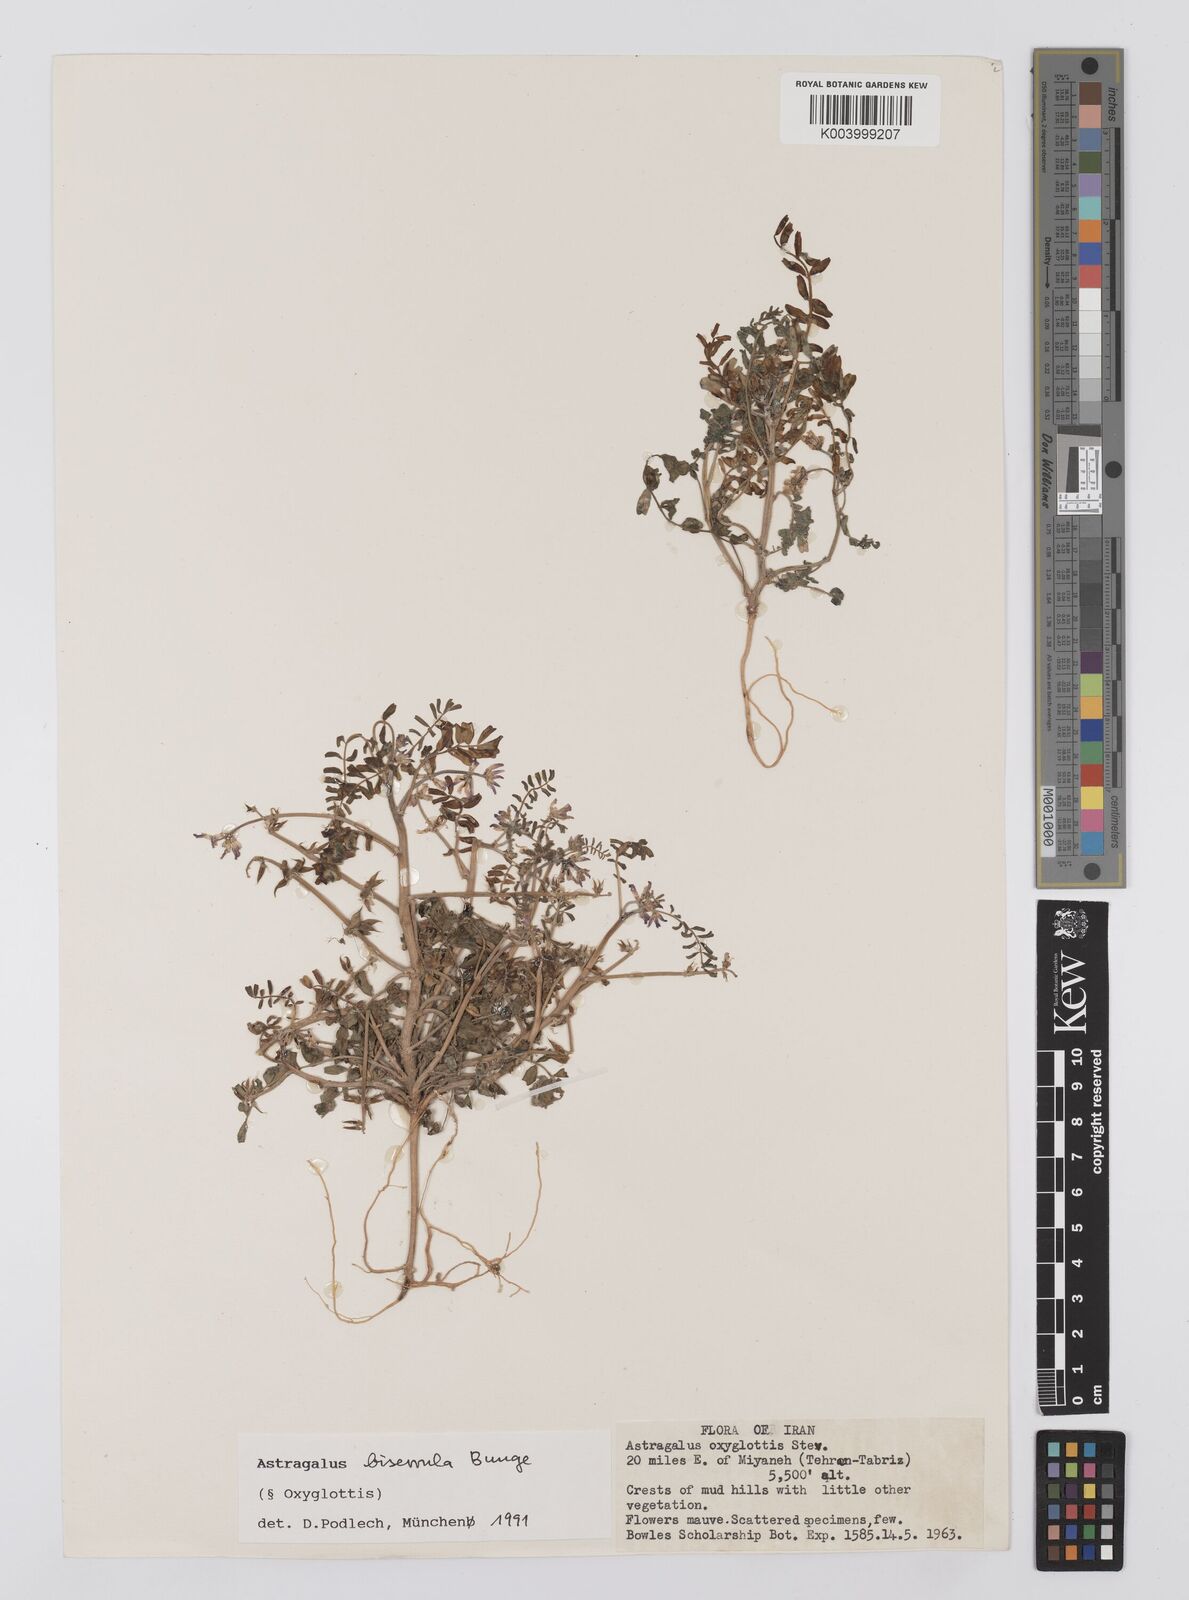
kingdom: Plantae
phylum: Tracheophyta
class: Magnoliopsida
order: Fabales
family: Fabaceae
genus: Astragalus
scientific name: Astragalus oxyglottis
